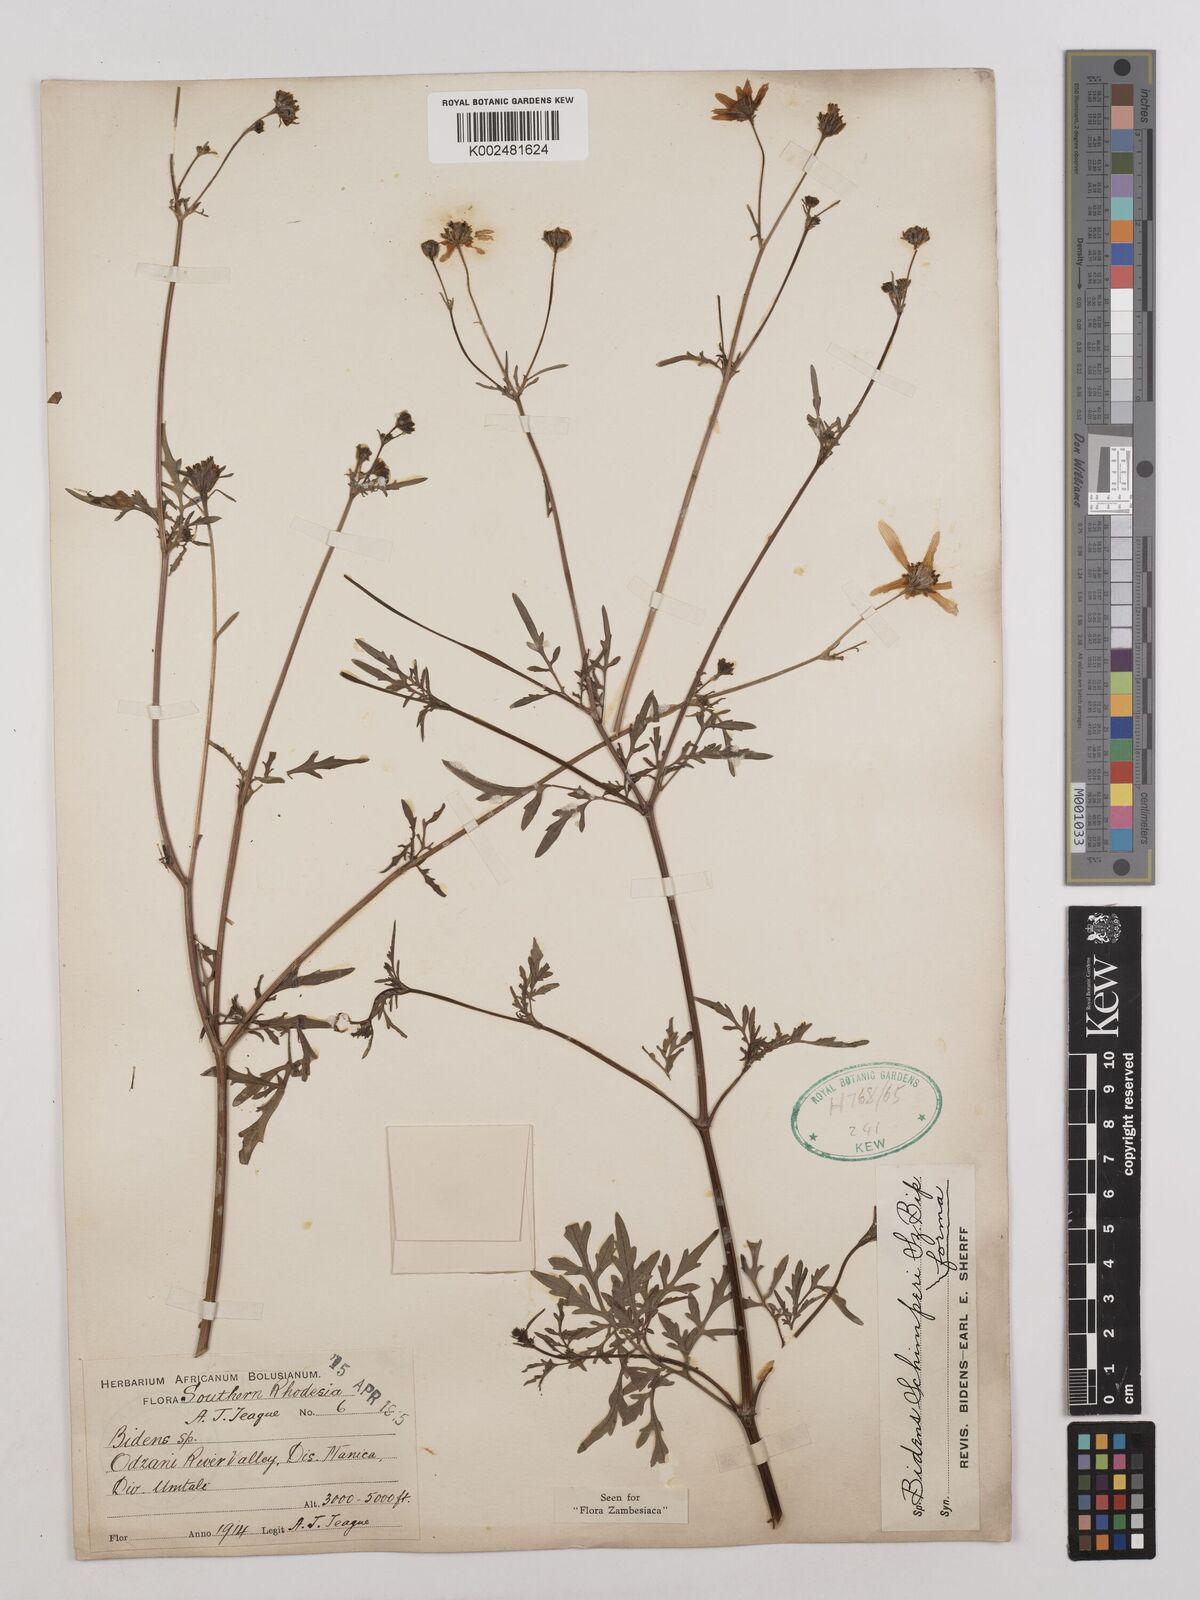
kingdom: Plantae
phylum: Tracheophyta
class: Magnoliopsida
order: Asterales
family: Asteraceae
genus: Bidens
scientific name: Bidens schimperi
